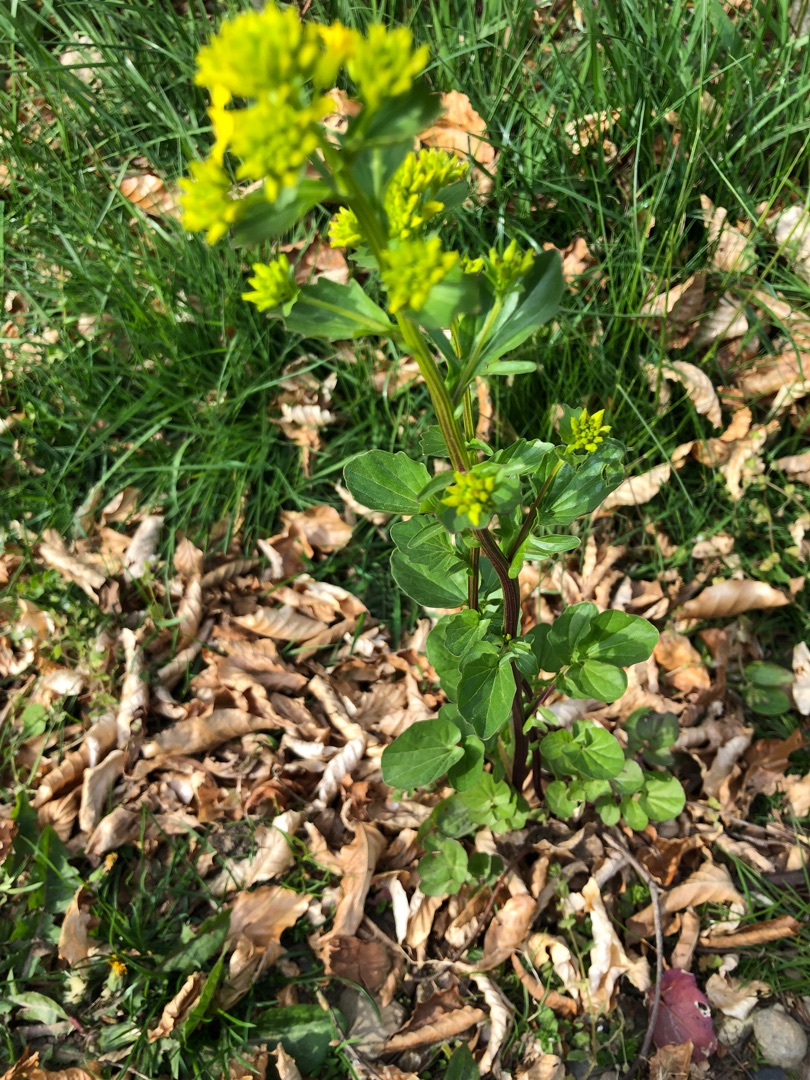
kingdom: Plantae
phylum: Tracheophyta
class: Magnoliopsida
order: Brassicales
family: Brassicaceae
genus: Barbarea
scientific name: Barbarea vulgaris
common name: Almindelig vinterkarse
